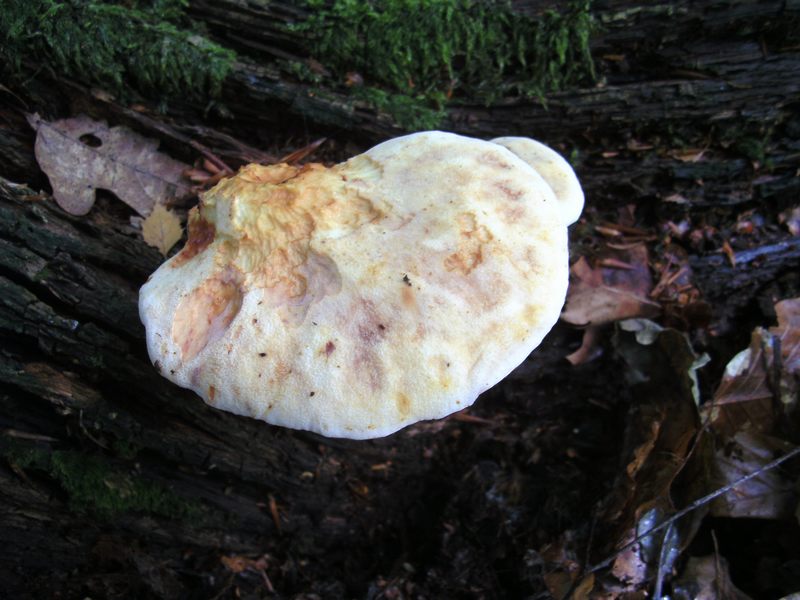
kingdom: Fungi
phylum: Basidiomycota
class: Agaricomycetes
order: Polyporales
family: Fomitopsidaceae
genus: Buglossoporus
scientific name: Buglossoporus quercinus
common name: egetunge
